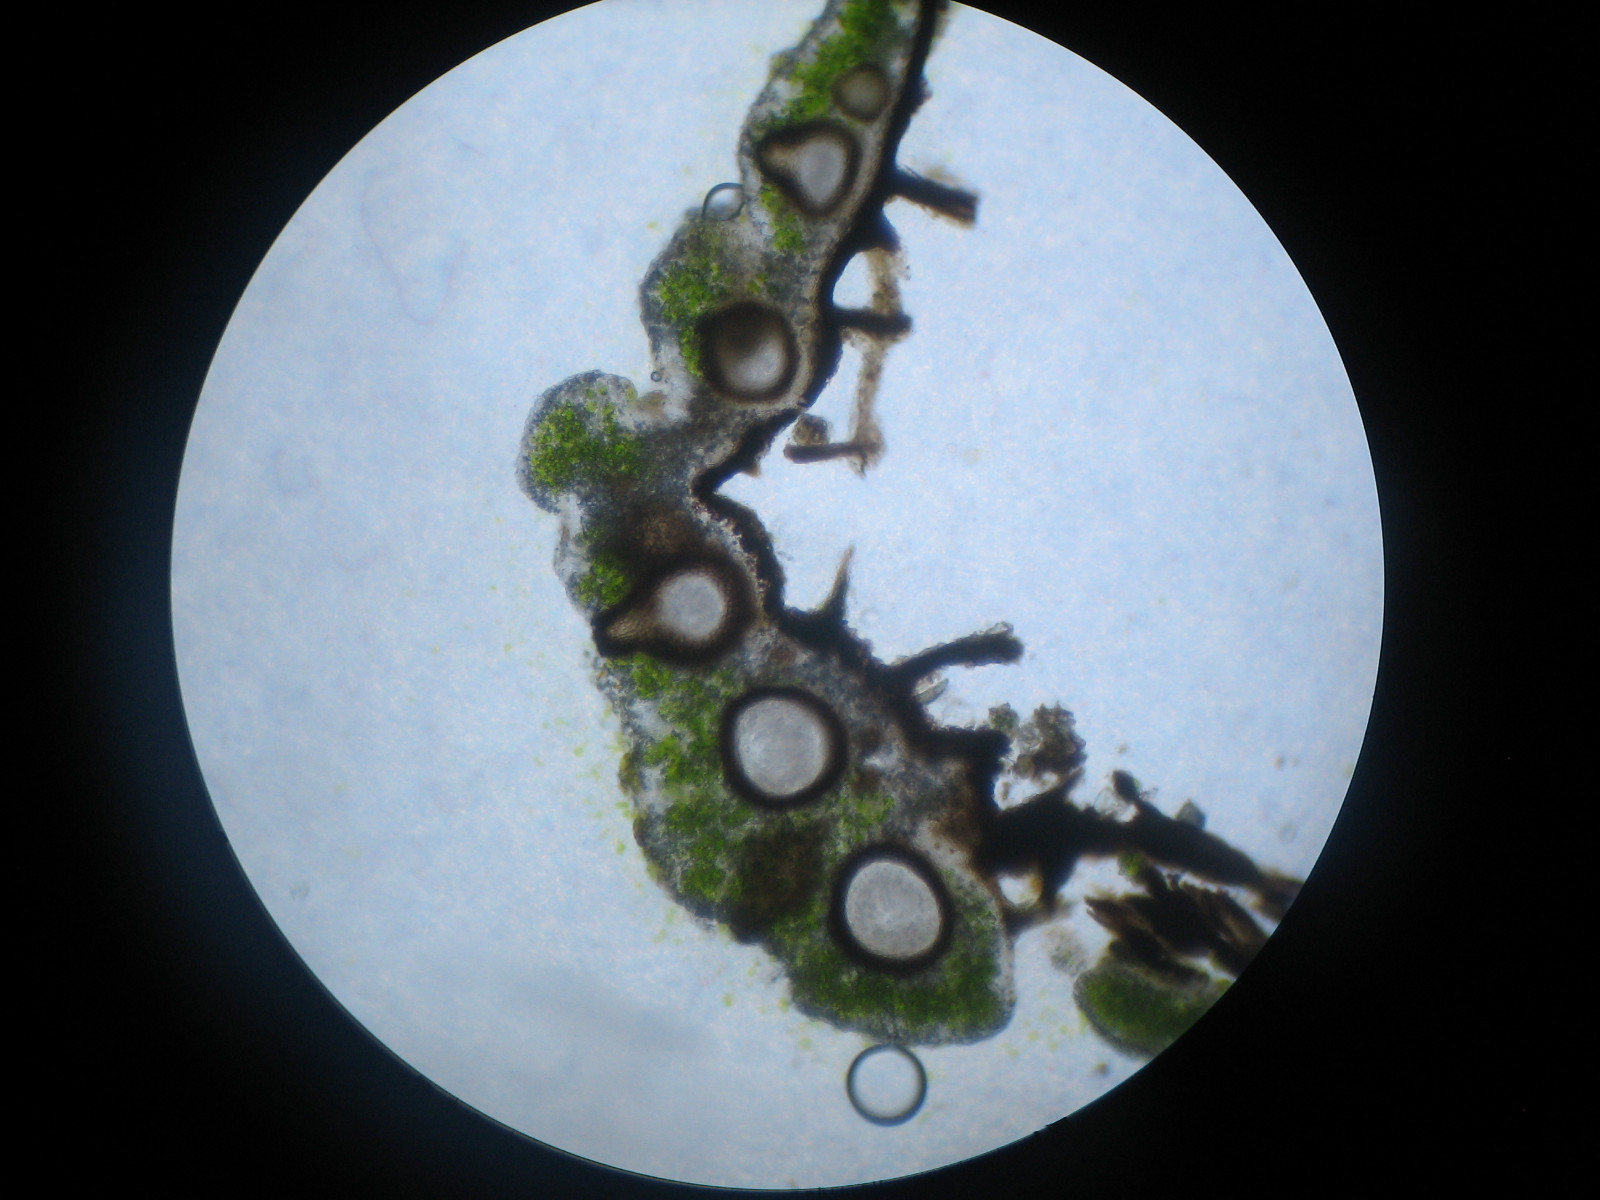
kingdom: Fungi
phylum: Ascomycota
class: Sordariomycetes
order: Phyllachorales
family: Phyllachoraceae
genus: Lichenochora
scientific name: Lichenochora obscuroides
